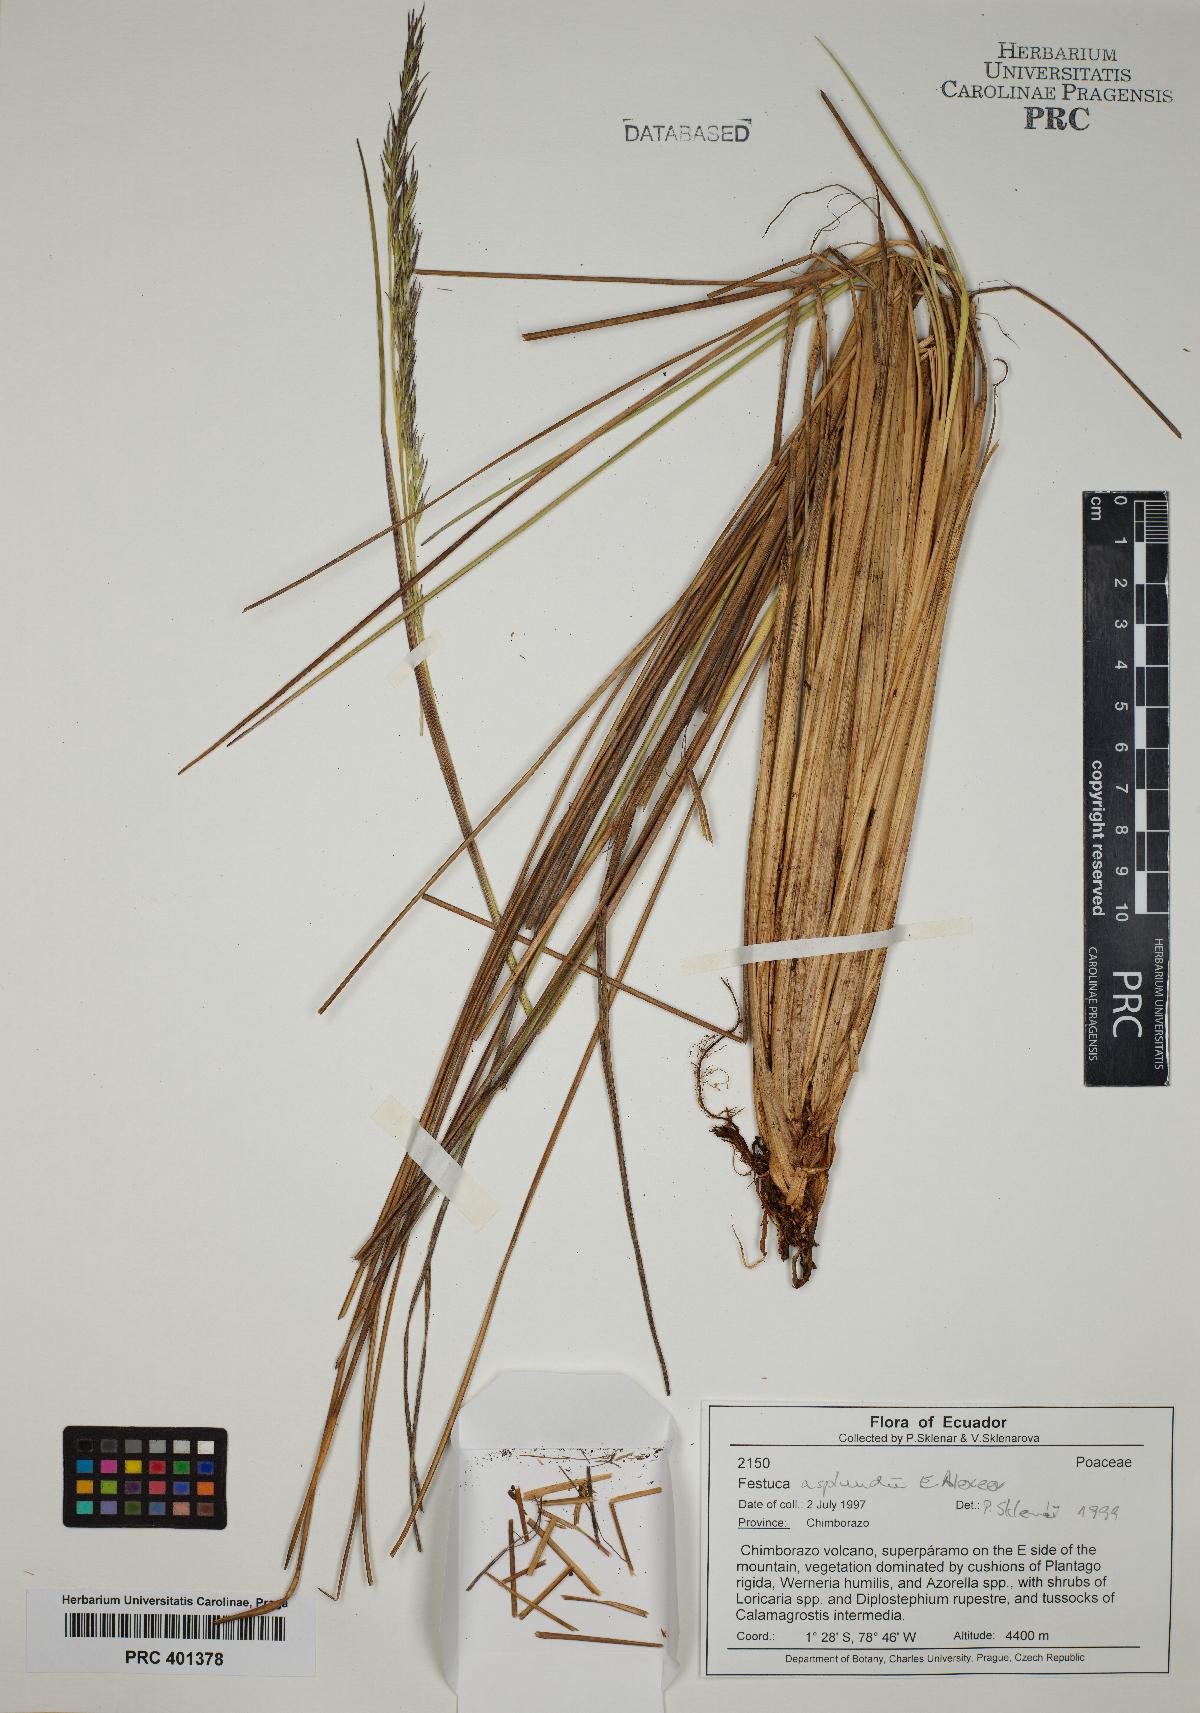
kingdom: Plantae
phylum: Tracheophyta
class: Liliopsida
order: Poales
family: Poaceae
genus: Festuca
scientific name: Festuca asplundii
